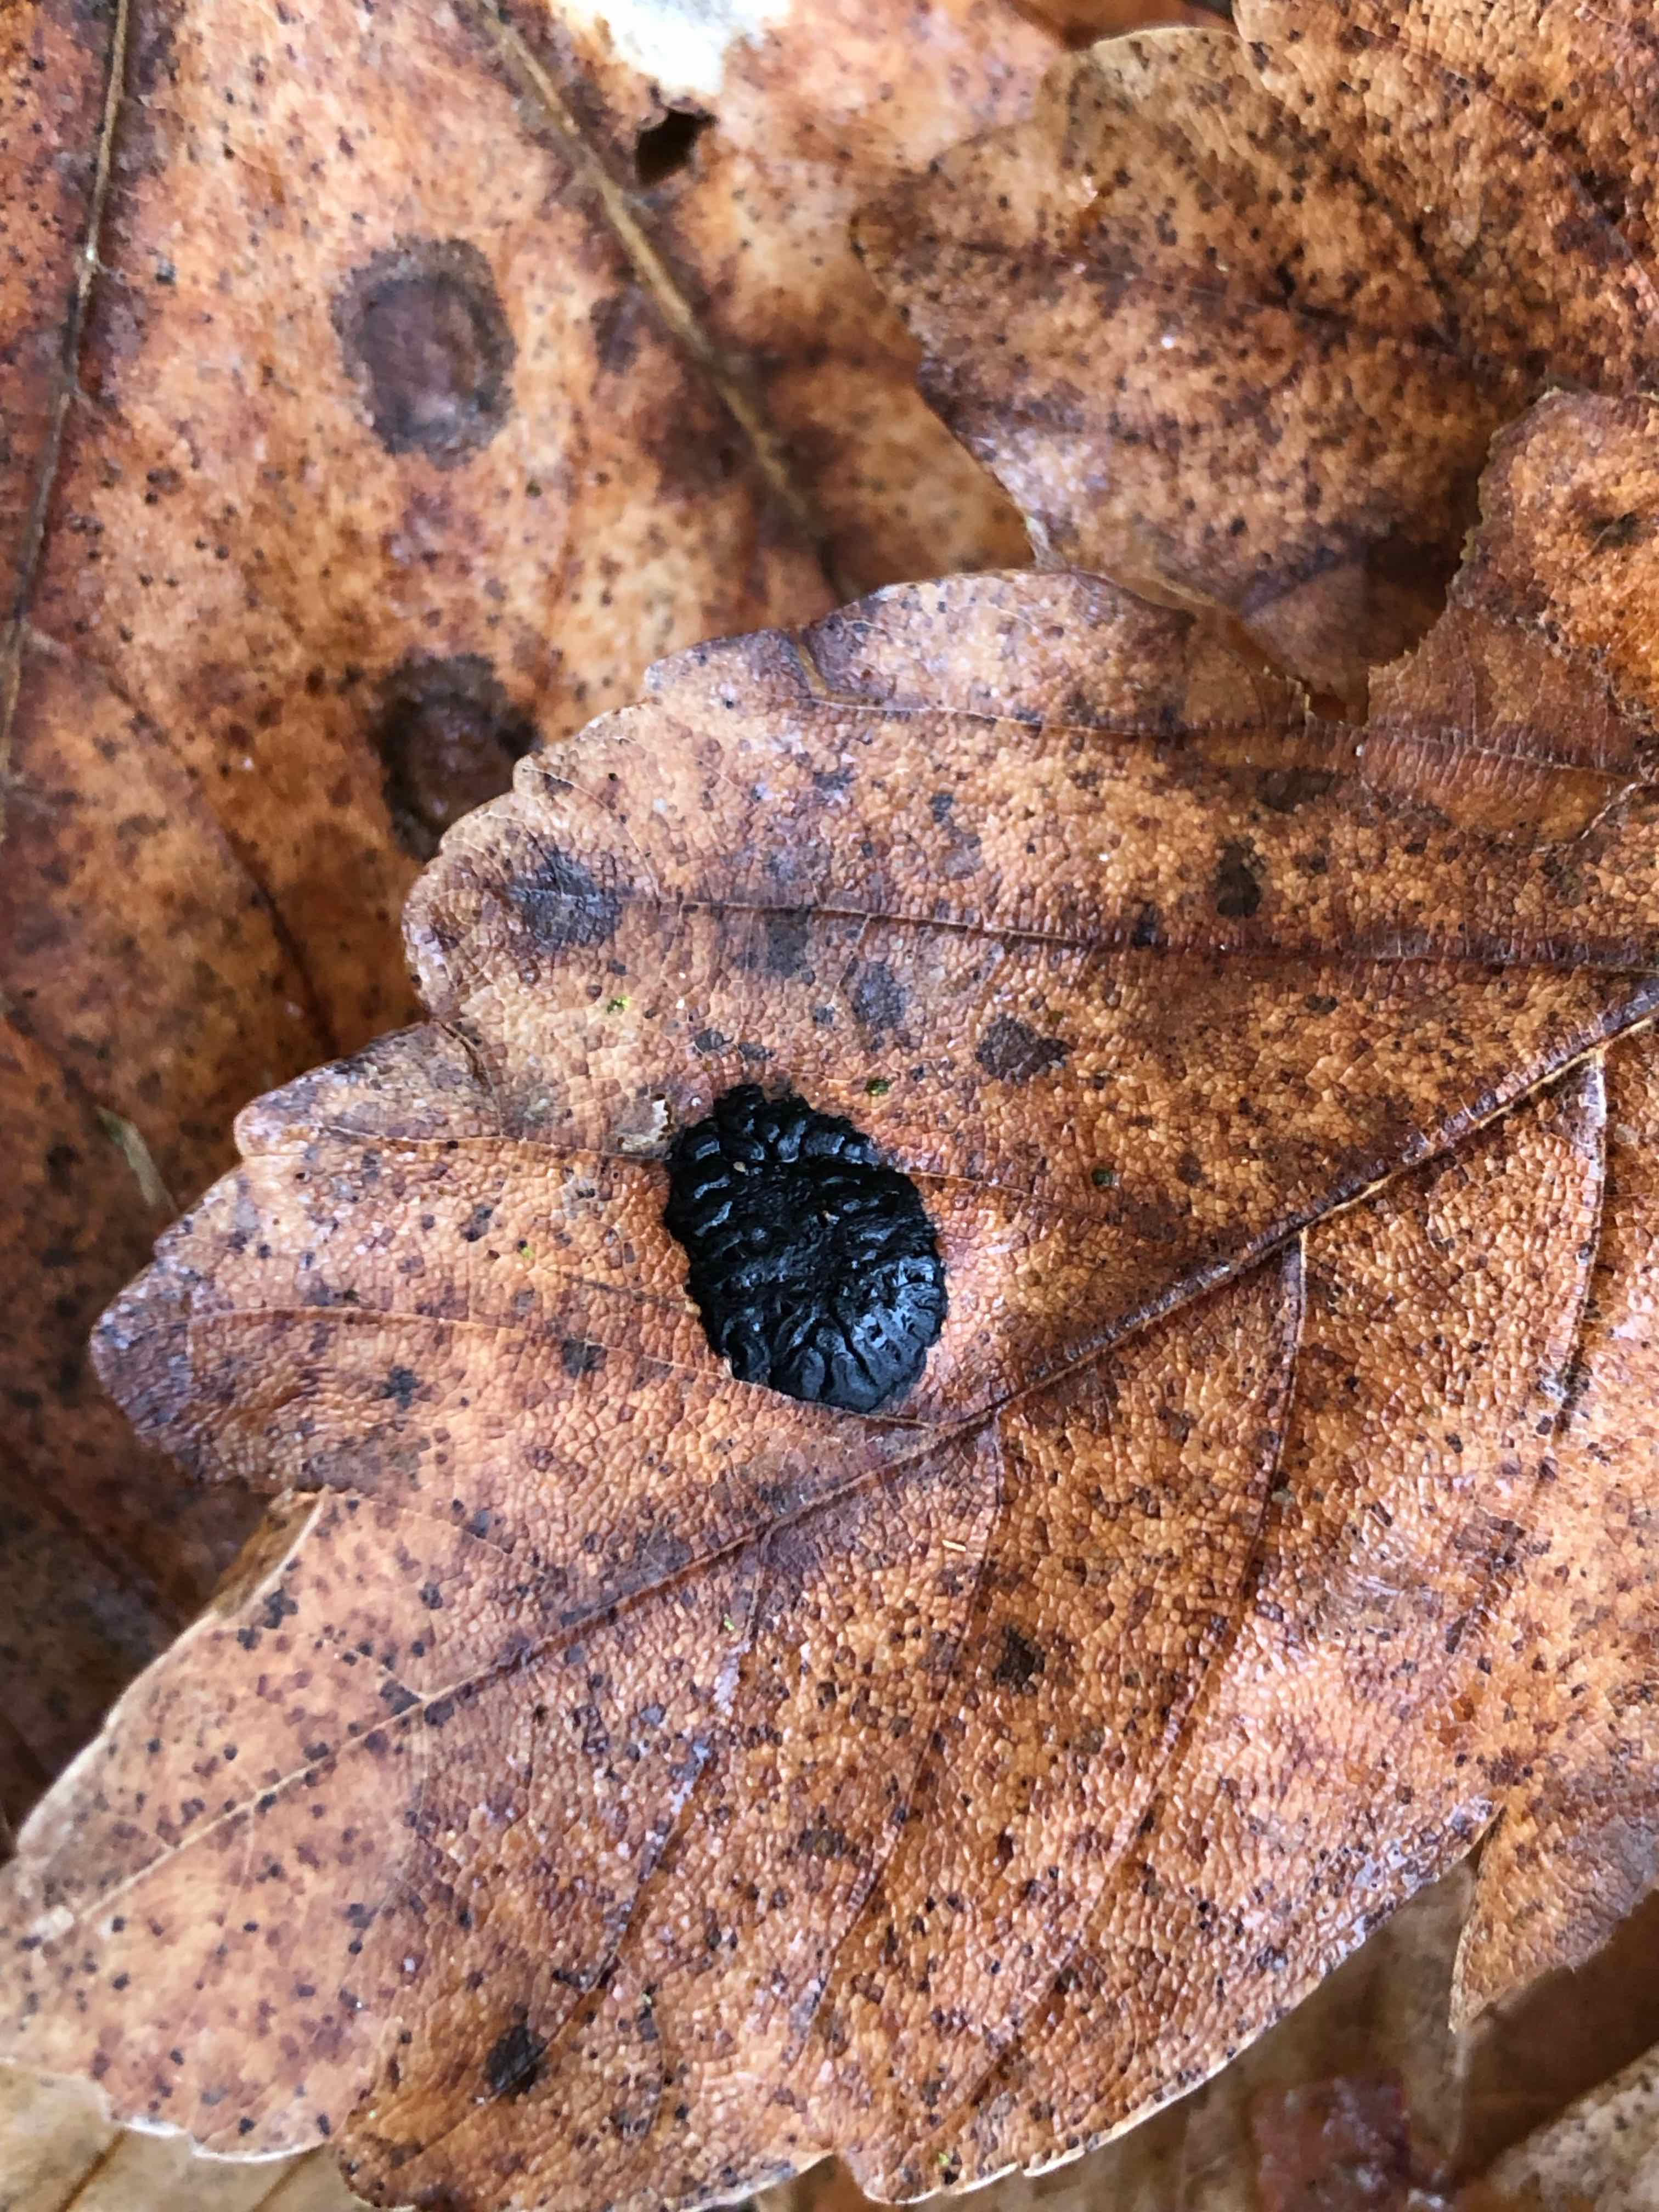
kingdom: Fungi
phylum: Ascomycota
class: Leotiomycetes
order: Rhytismatales
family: Rhytismataceae
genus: Rhytisma
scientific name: Rhytisma acerinum
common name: ahorn-rynkeplet
